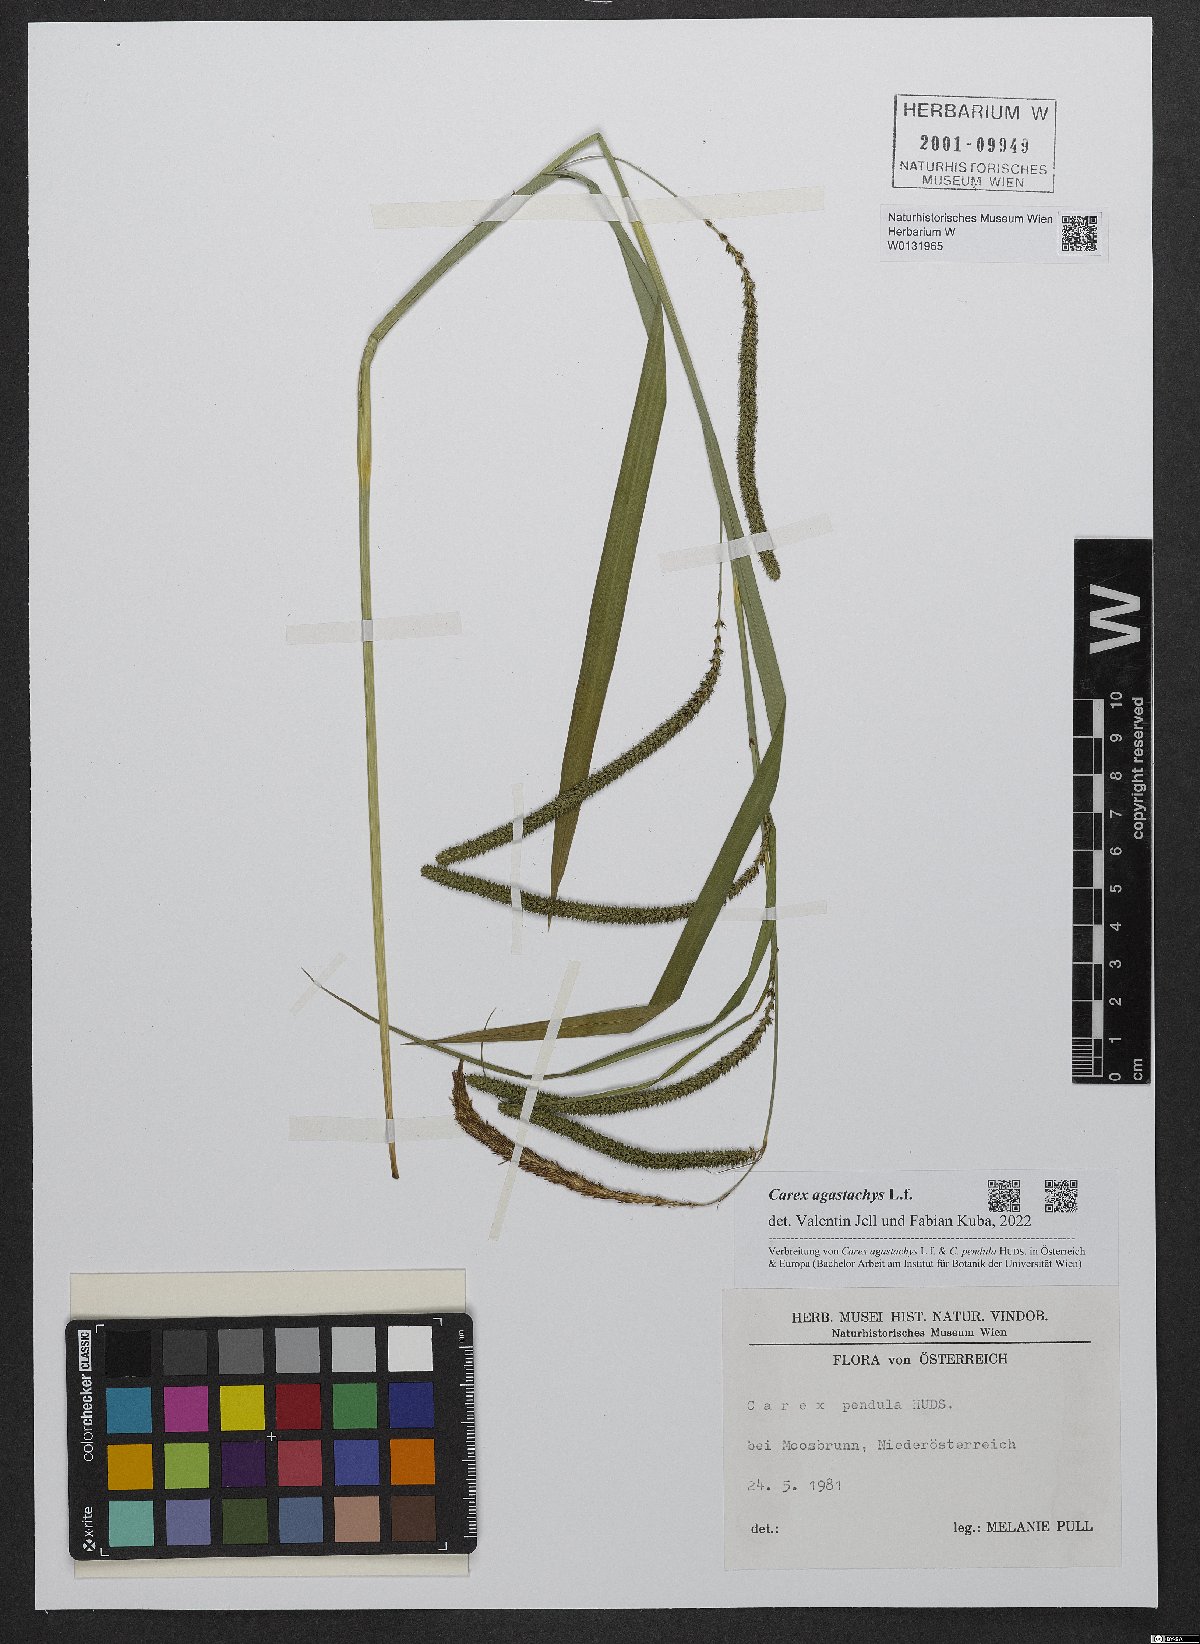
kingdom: Plantae
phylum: Tracheophyta
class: Liliopsida
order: Poales
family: Cyperaceae
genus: Carex
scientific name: Carex agastachys
